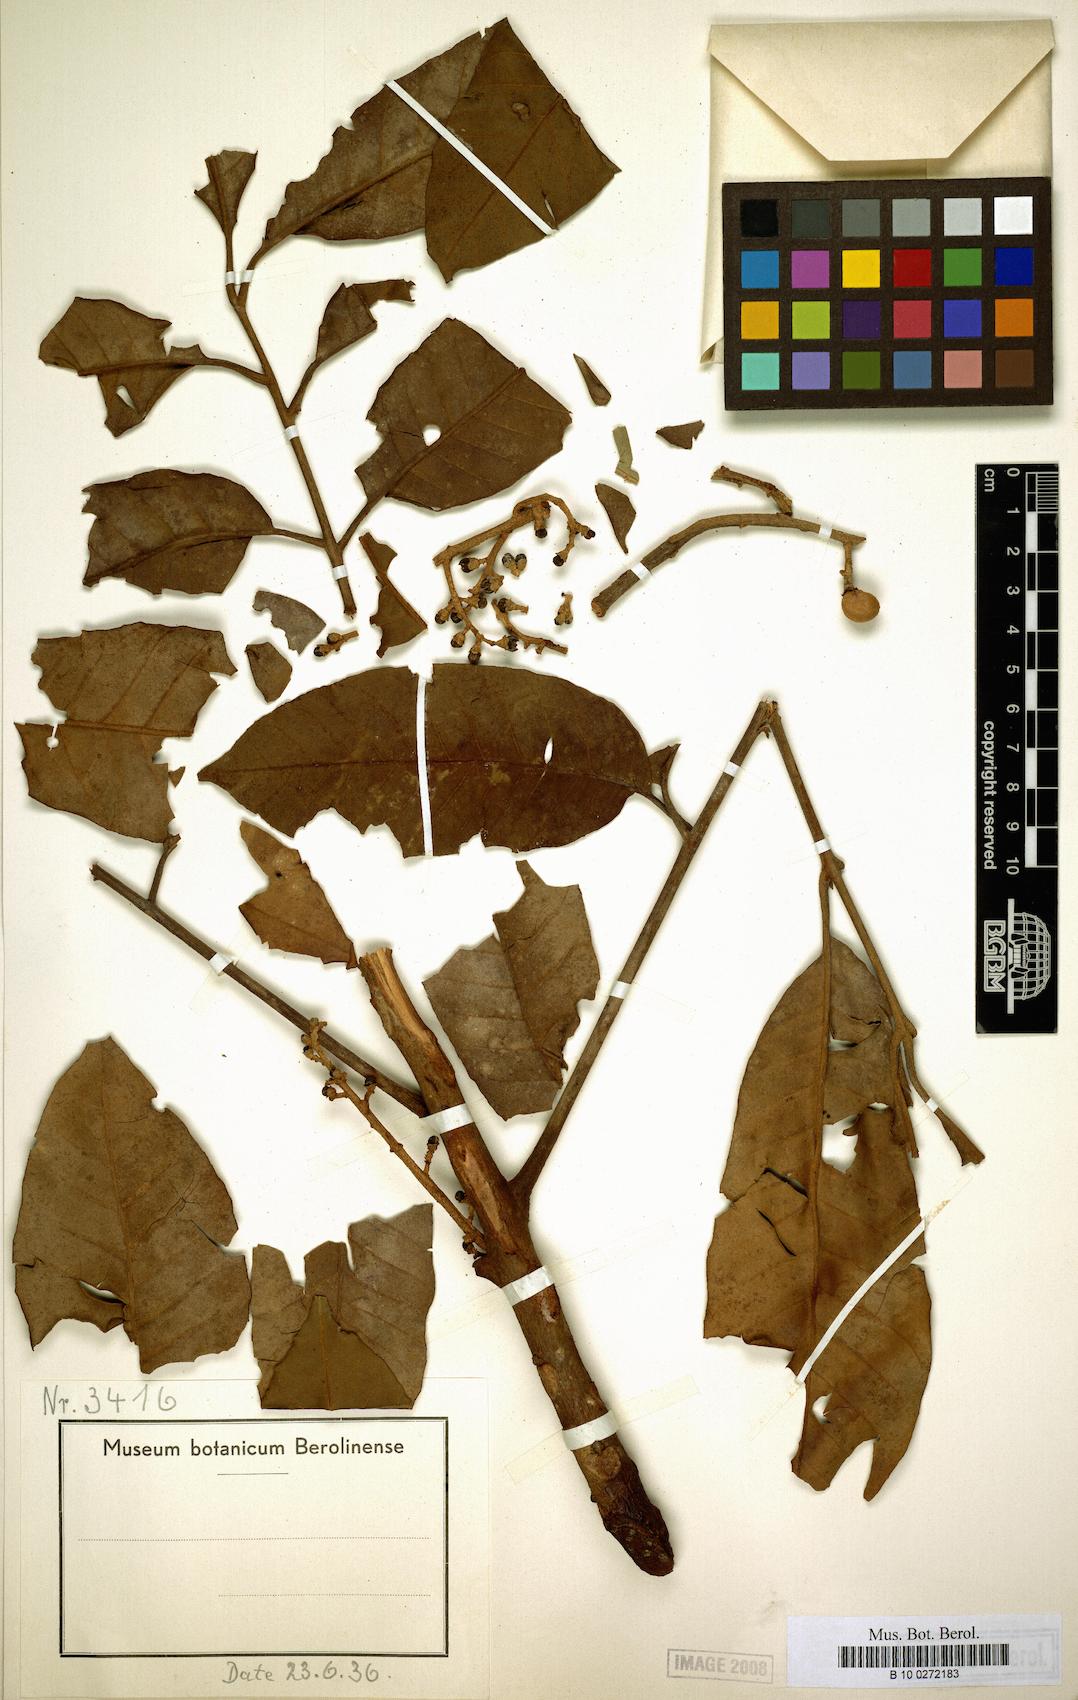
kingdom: Plantae
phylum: Tracheophyta
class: Magnoliopsida
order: Sapindales
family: Meliaceae
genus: Aglaia
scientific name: Aglaia subcuprea
